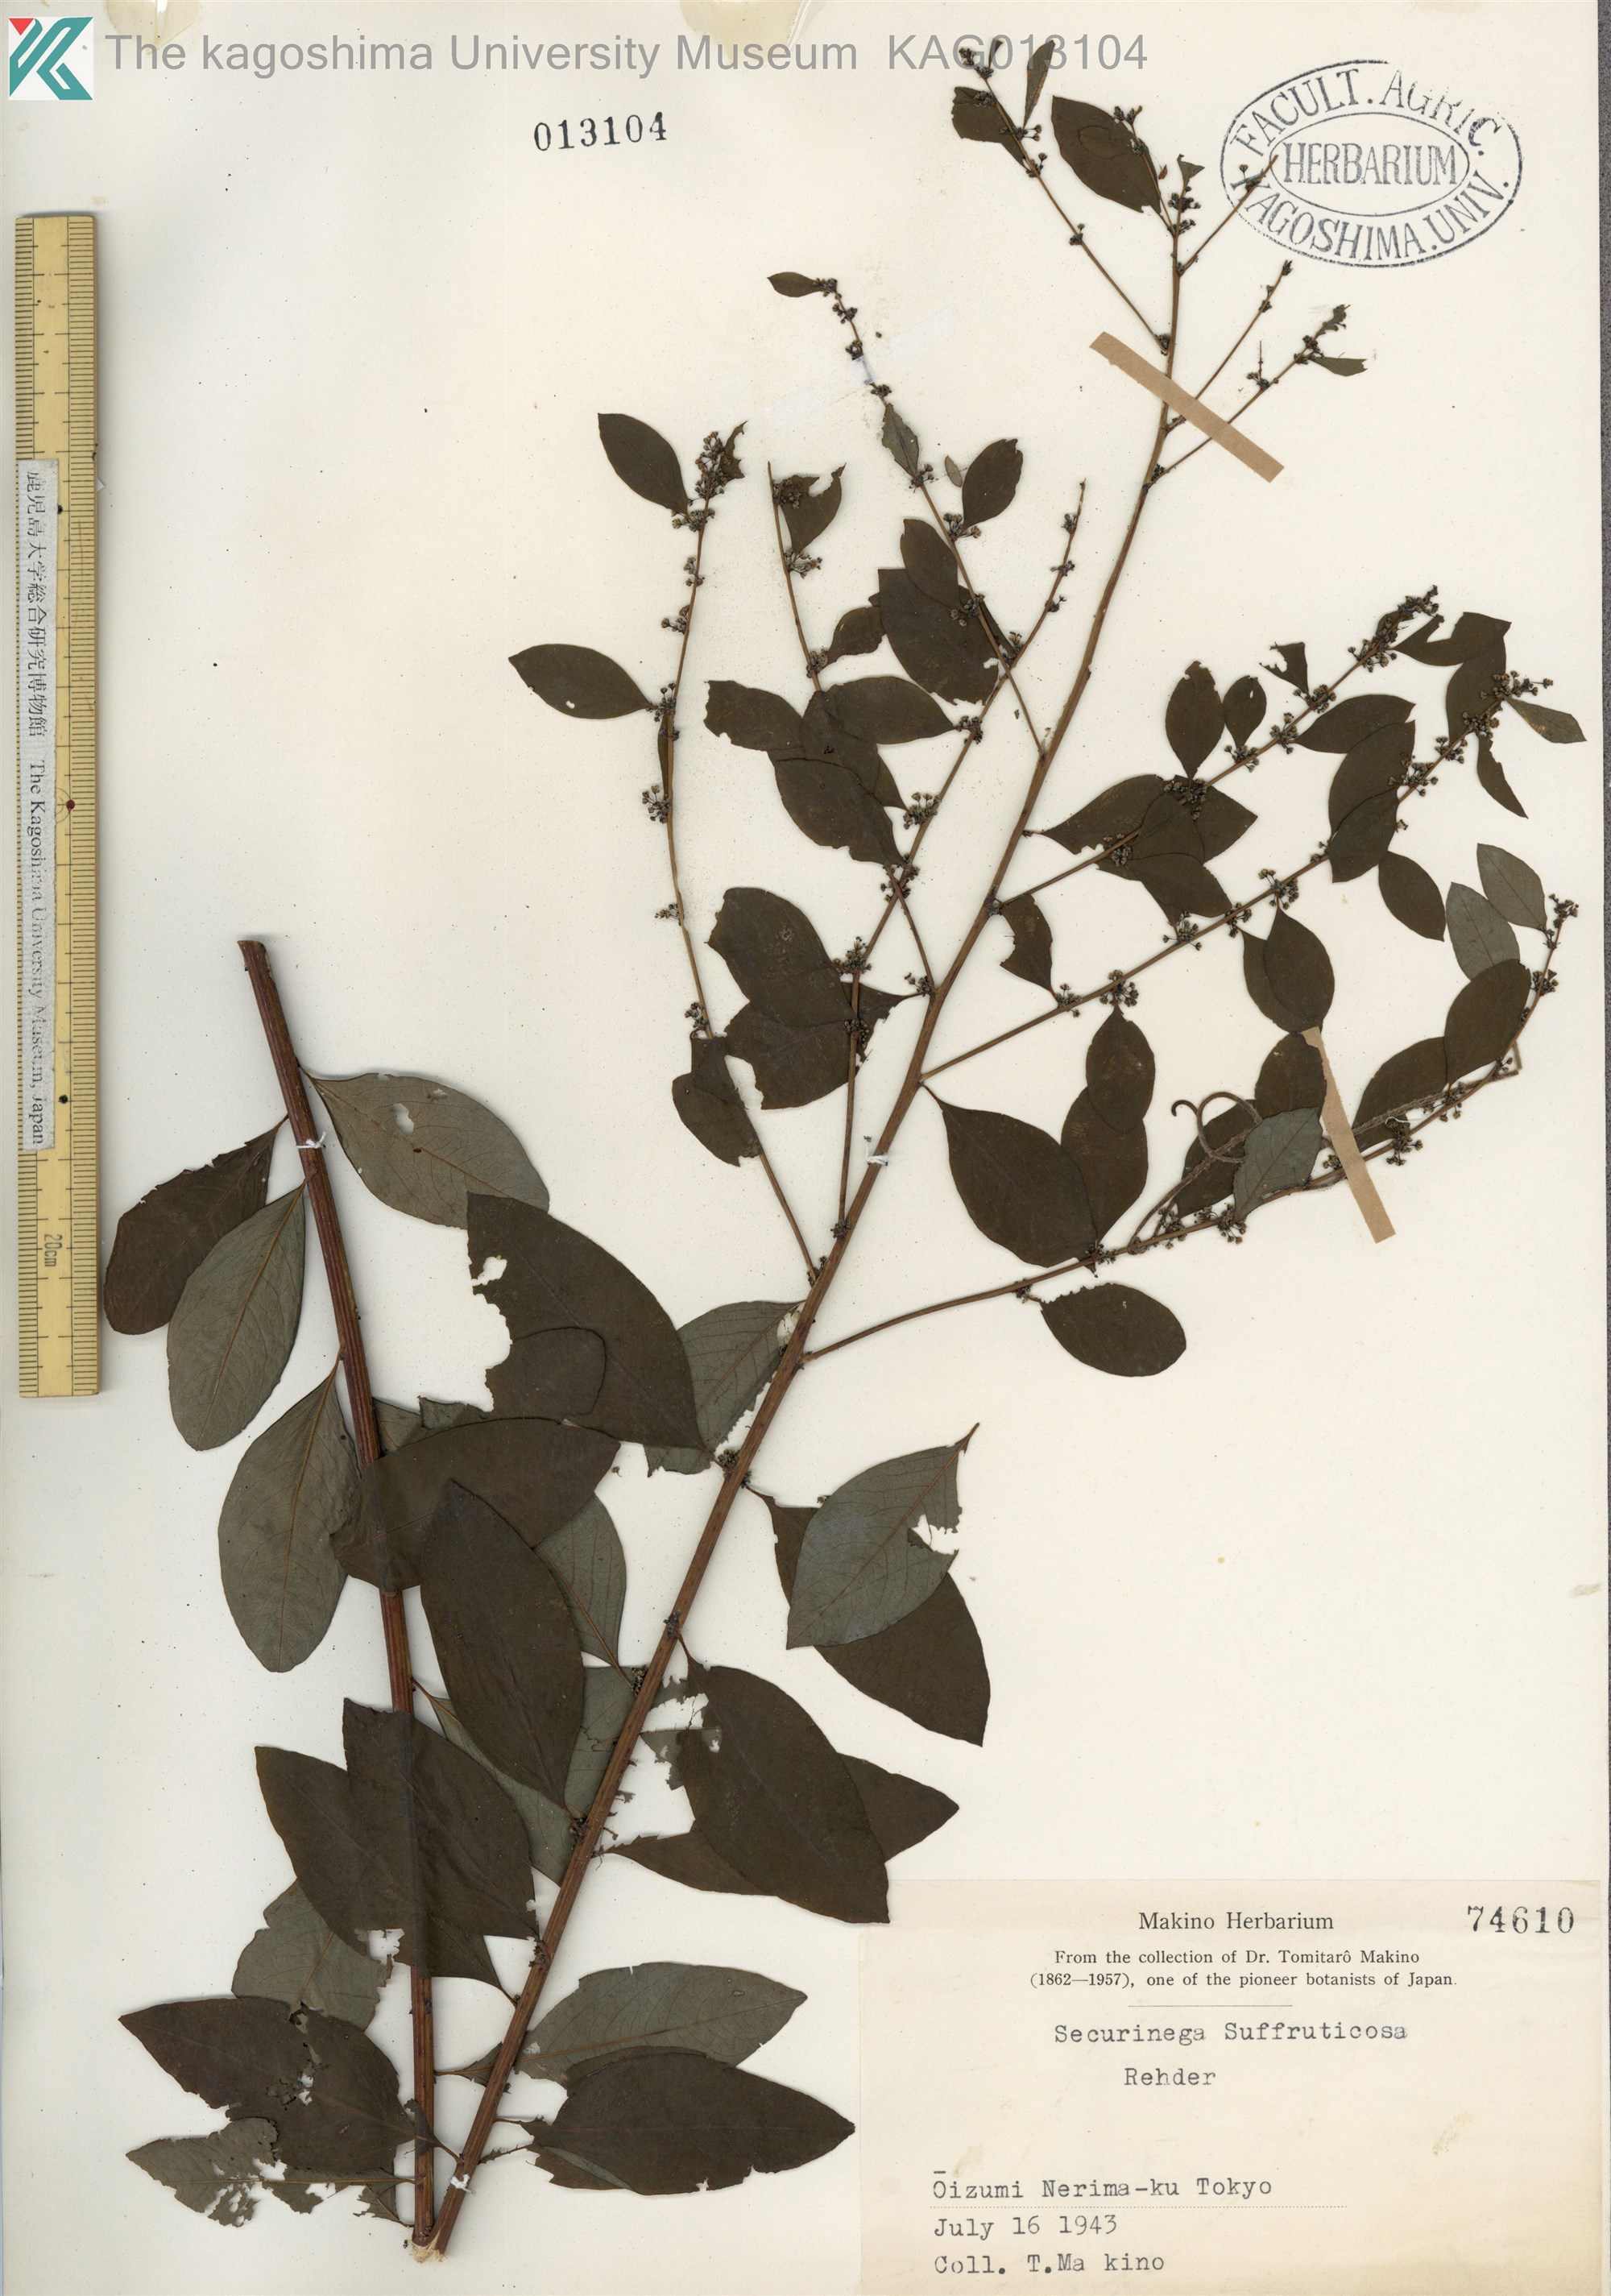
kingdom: Plantae
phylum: Tracheophyta
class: Magnoliopsida
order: Malpighiales
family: Phyllanthaceae
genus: Flueggea
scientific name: Flueggea suffruticosa
